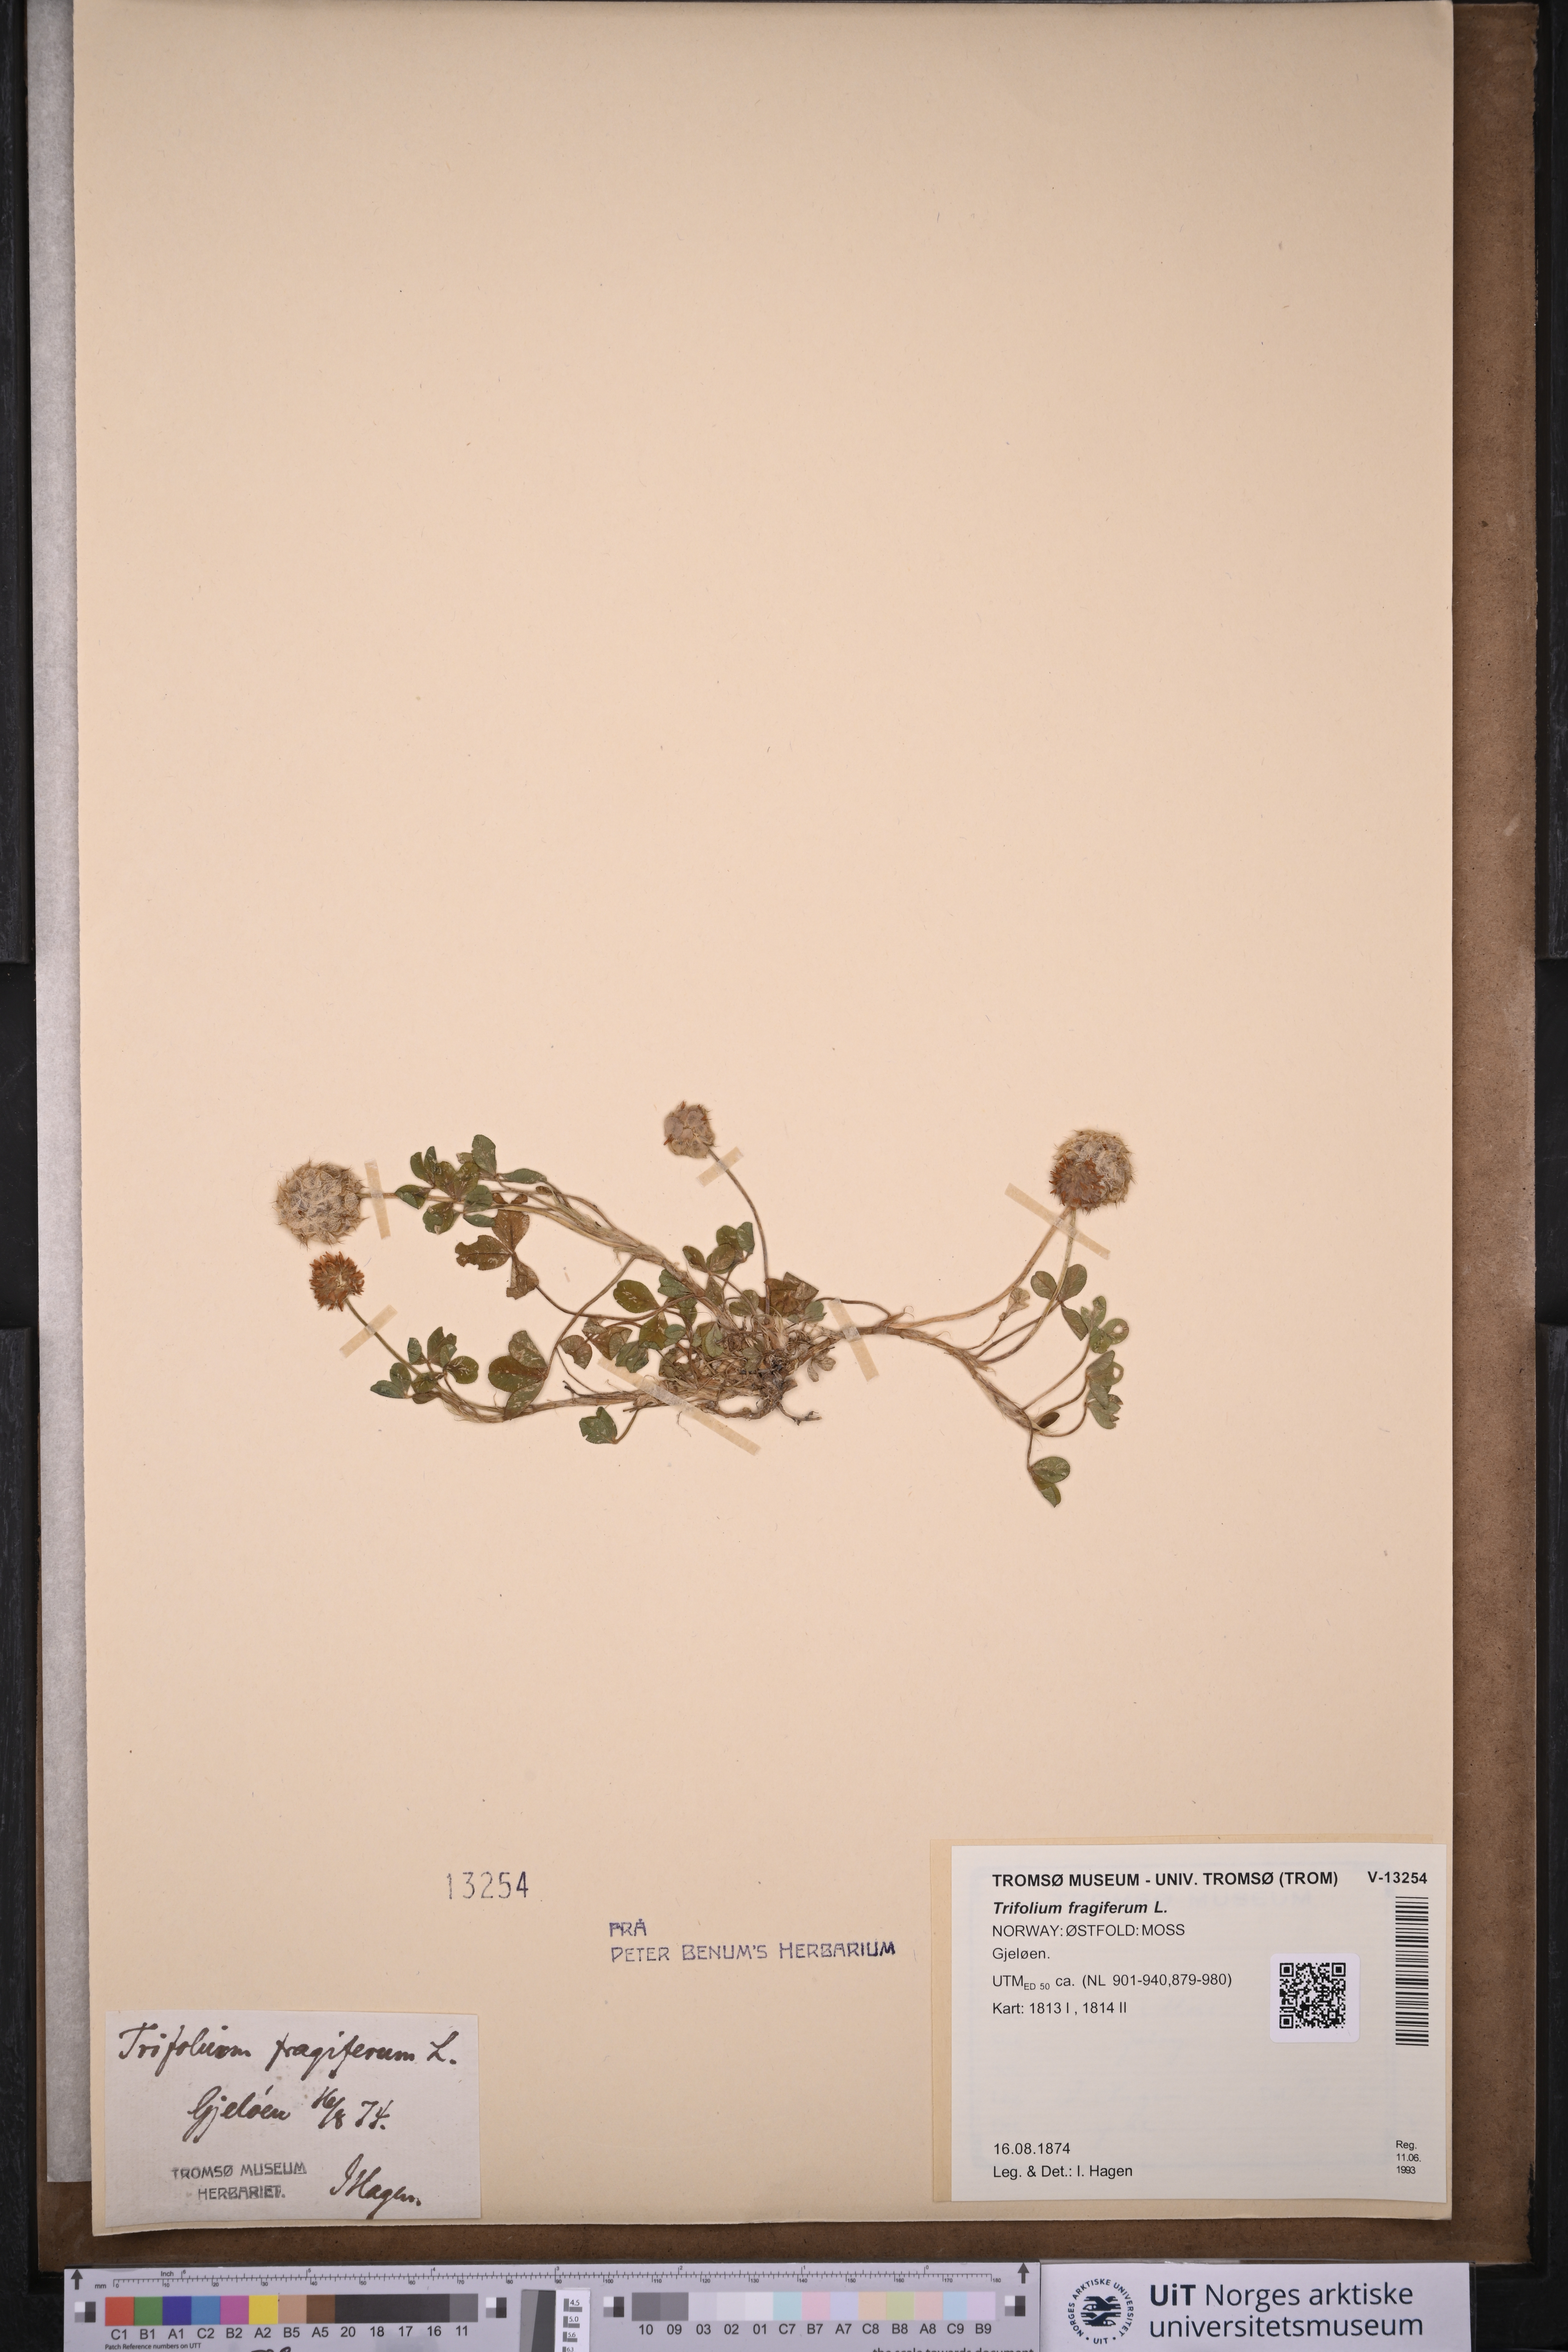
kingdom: Plantae
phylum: Tracheophyta
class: Magnoliopsida
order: Fabales
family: Fabaceae
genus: Trifolium
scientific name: Trifolium fragiferum
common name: Strawberry clover
